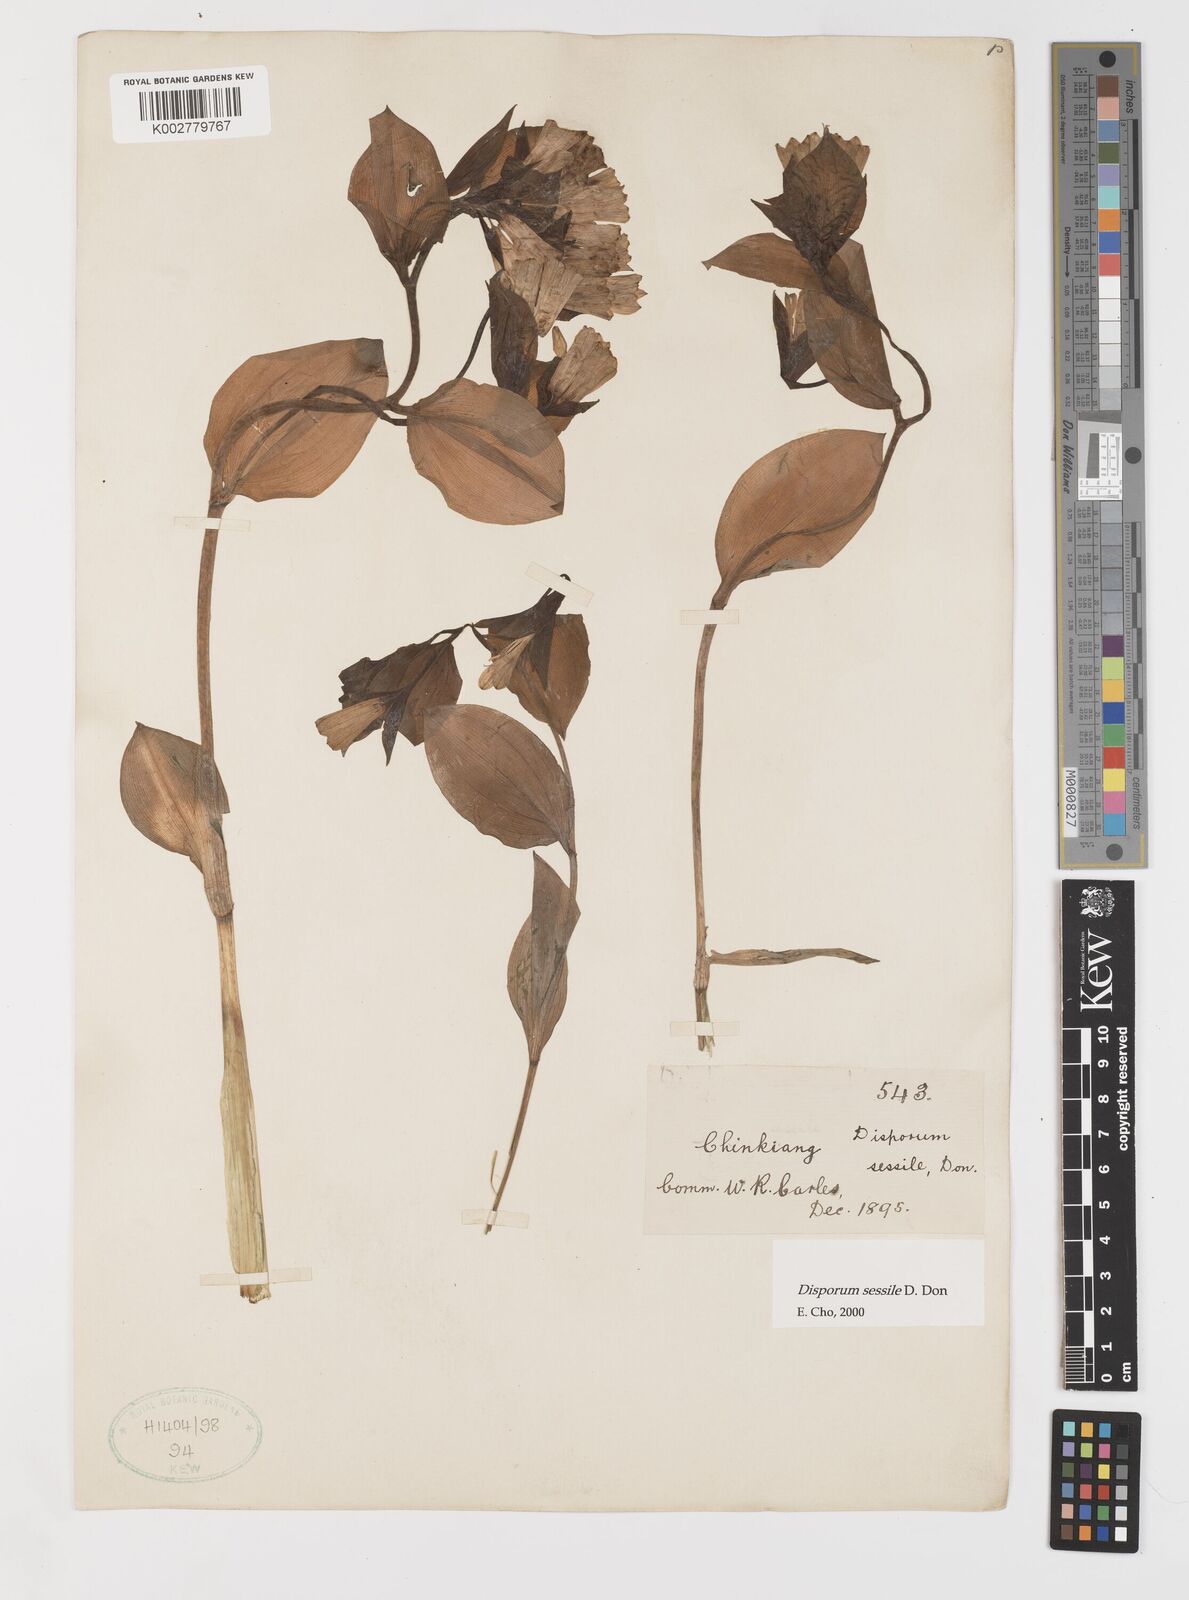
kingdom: Plantae
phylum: Tracheophyta
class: Liliopsida
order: Liliales
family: Colchicaceae
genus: Disporum
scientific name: Disporum sessile
